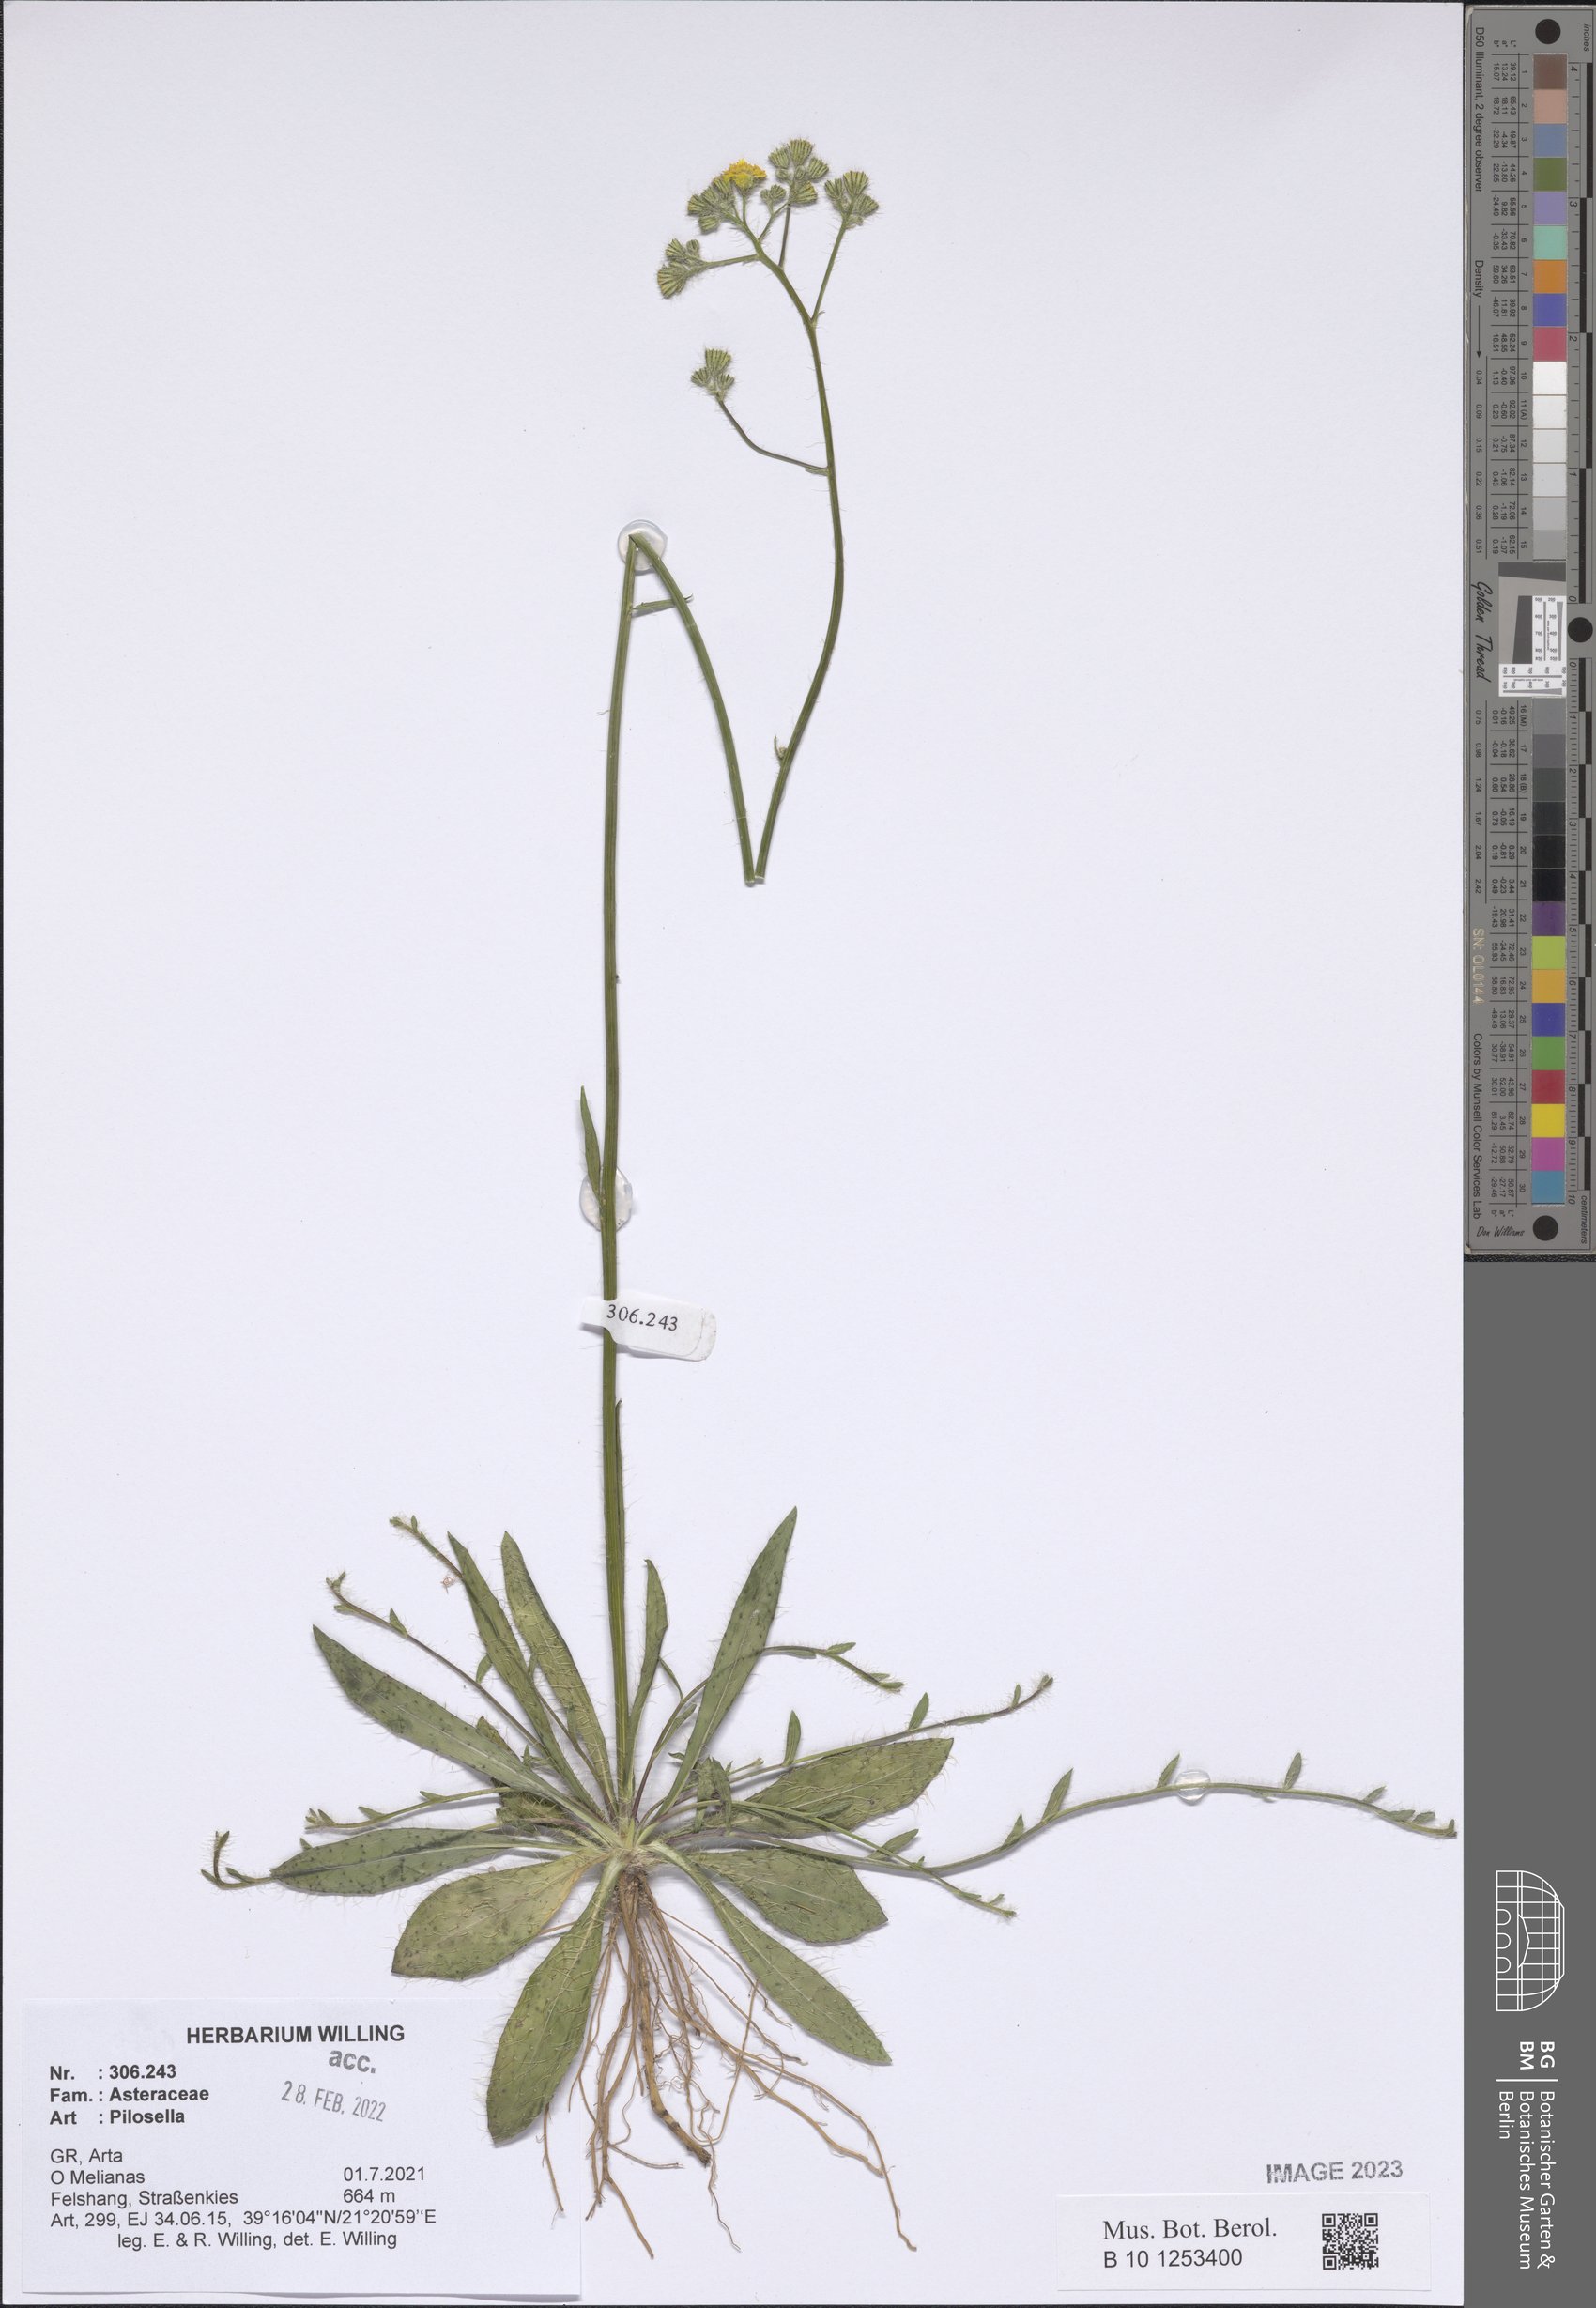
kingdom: Plantae
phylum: Tracheophyta
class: Magnoliopsida
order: Asterales
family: Asteraceae
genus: Pilosella
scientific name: Pilosella
